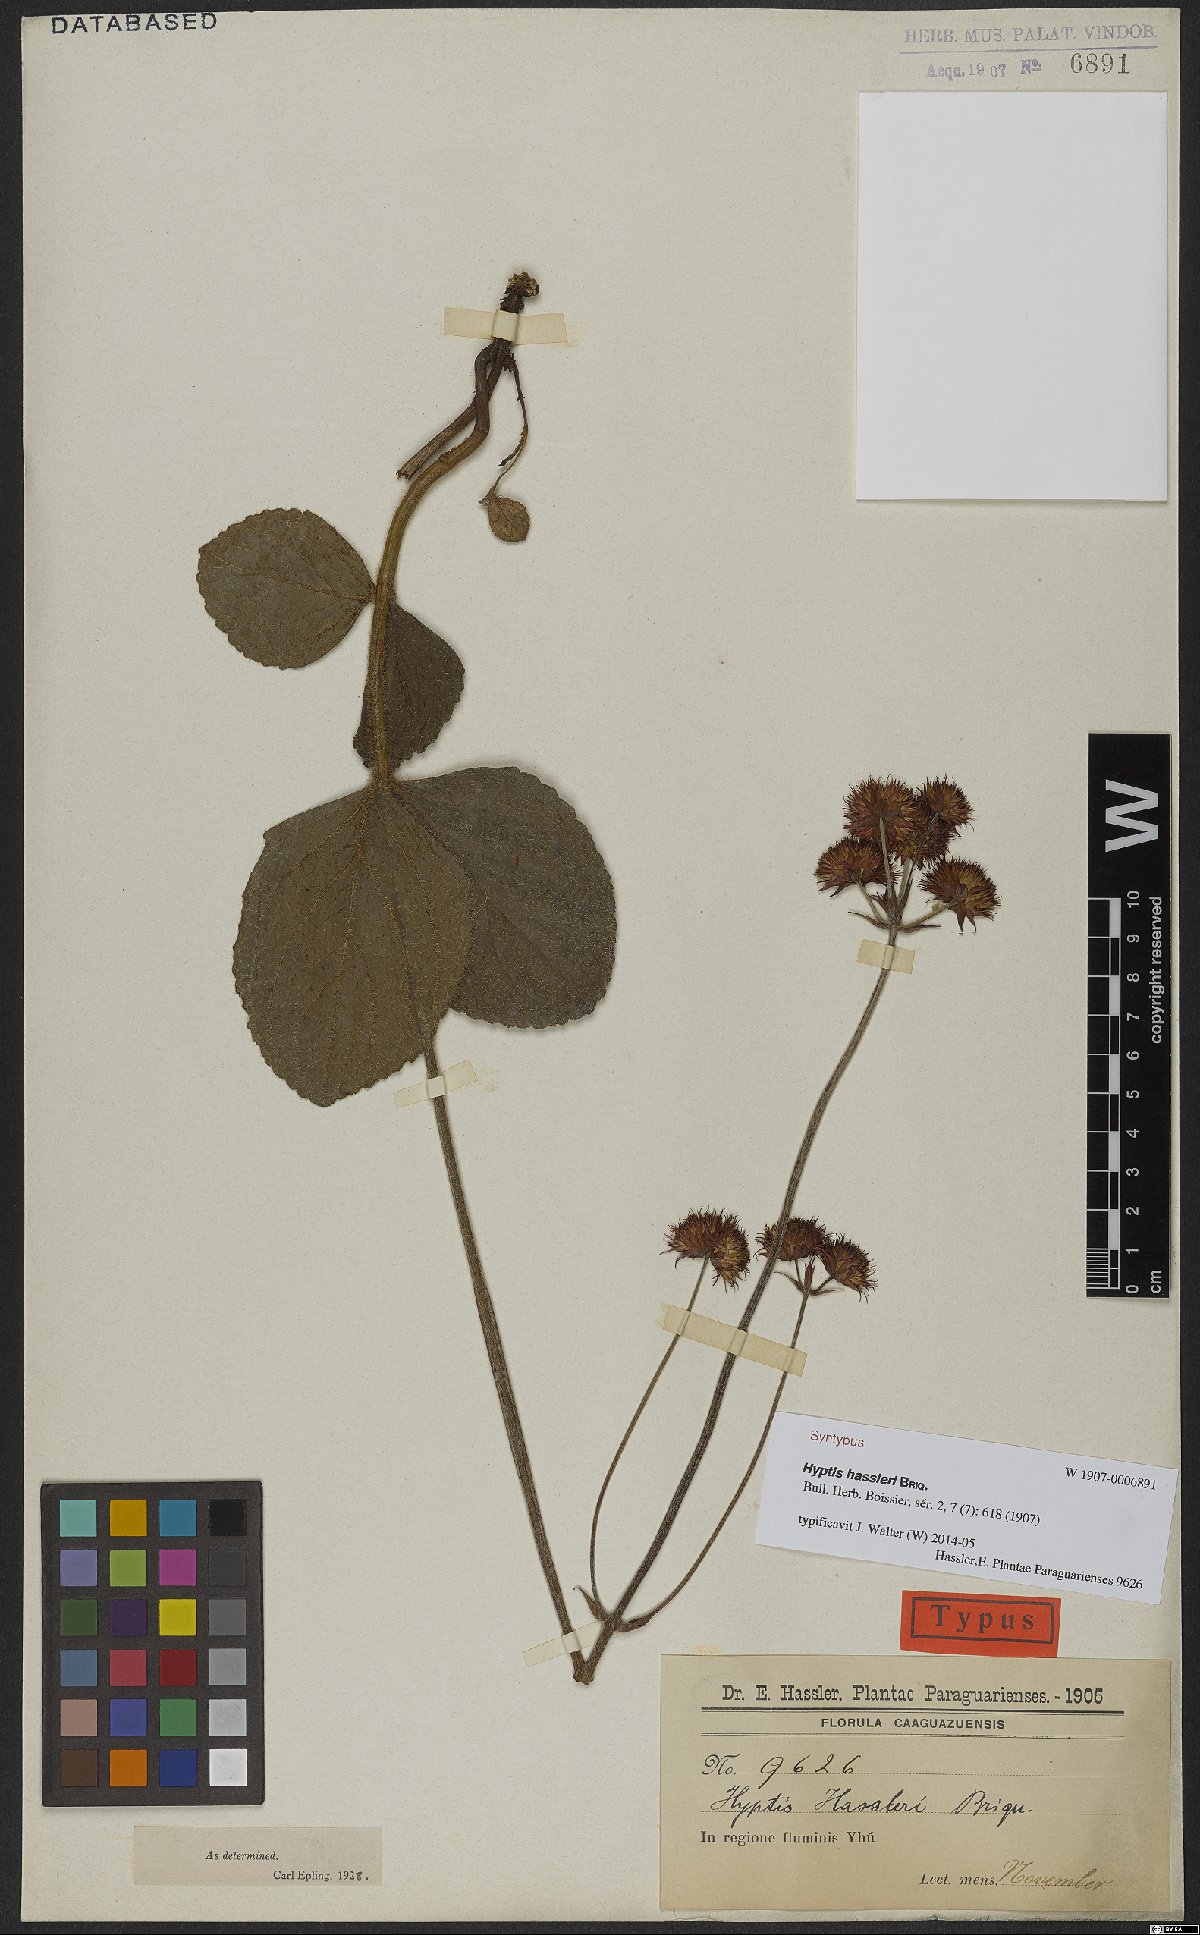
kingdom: Plantae
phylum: Tracheophyta
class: Magnoliopsida
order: Lamiales
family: Lamiaceae
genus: Hyptis
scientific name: Hyptis hassleri
